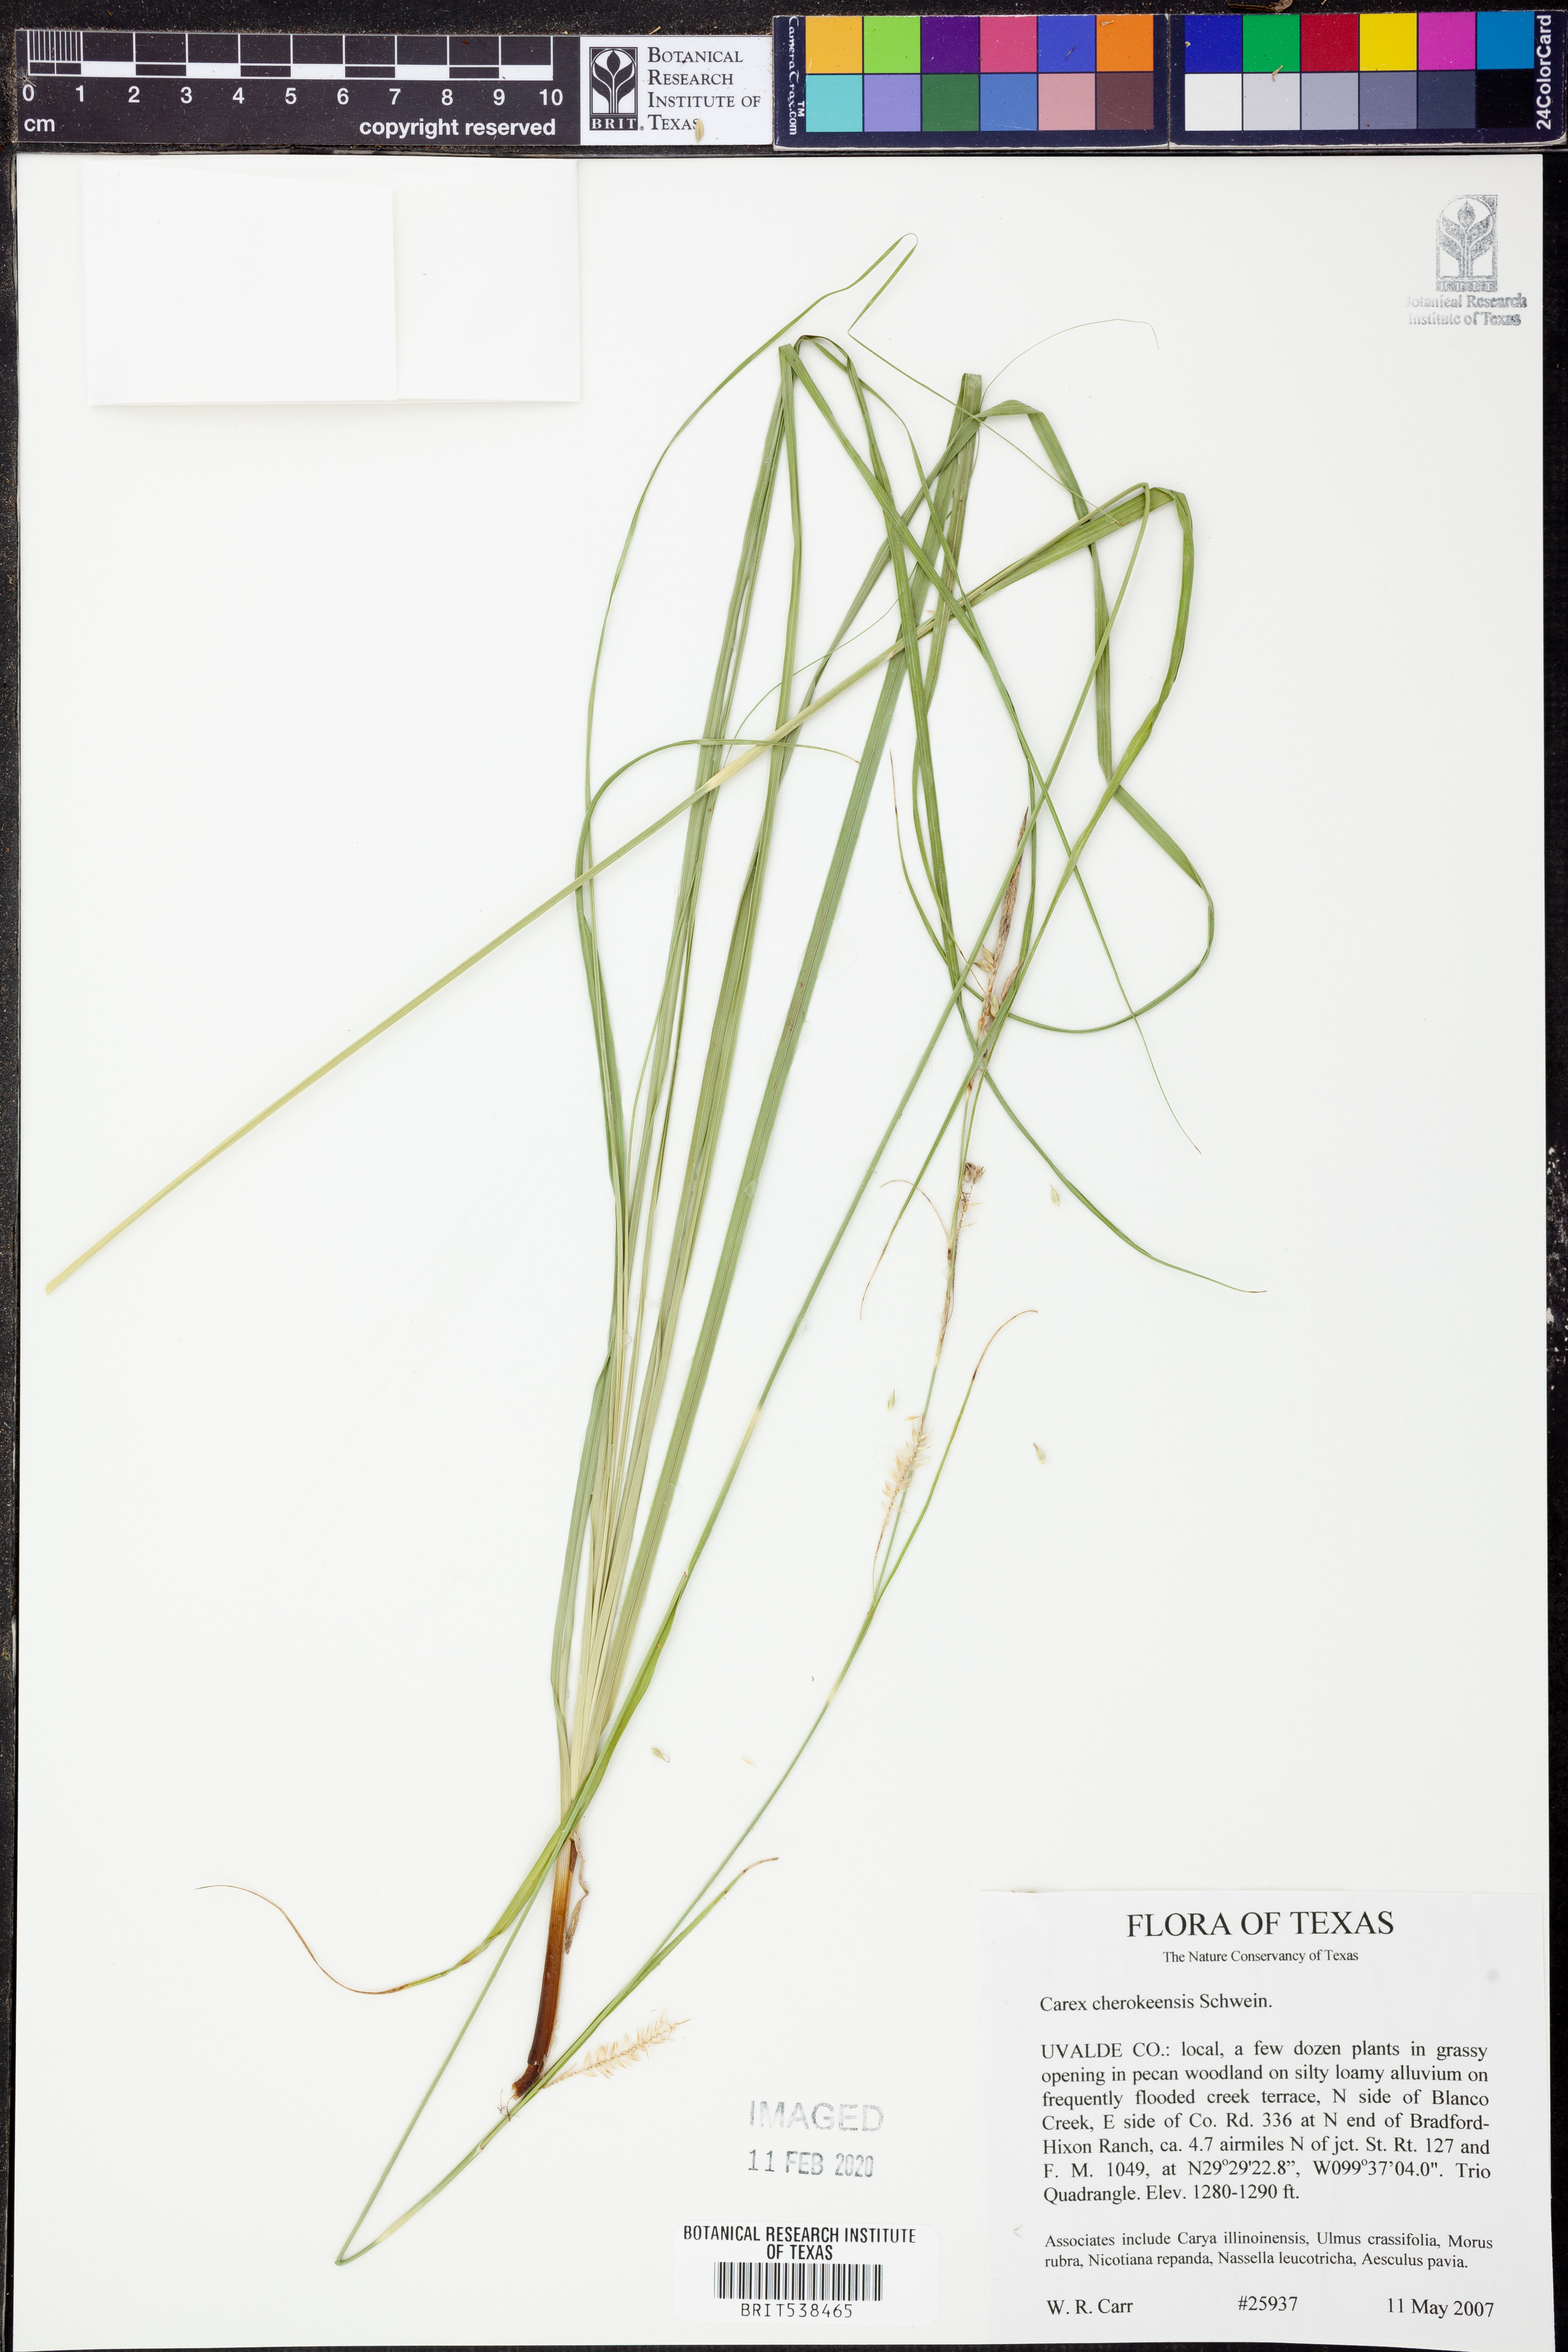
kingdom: Plantae
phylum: Tracheophyta
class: Liliopsida
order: Poales
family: Cyperaceae
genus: Carex
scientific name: Carex cherokeensis
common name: Cherokee sedge
